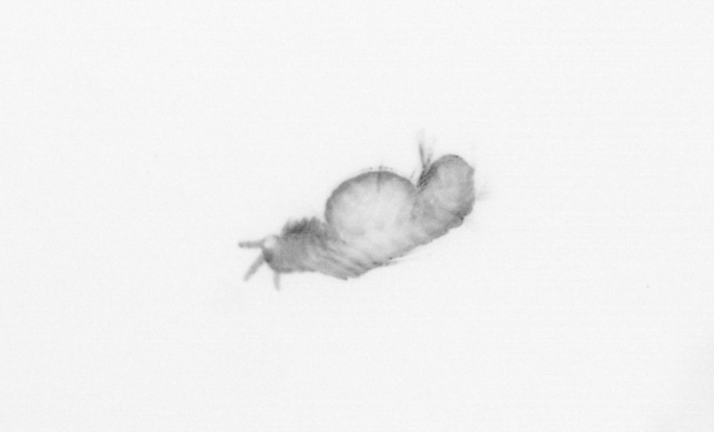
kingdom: Animalia
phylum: Annelida
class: Polychaeta
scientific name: Polychaeta
